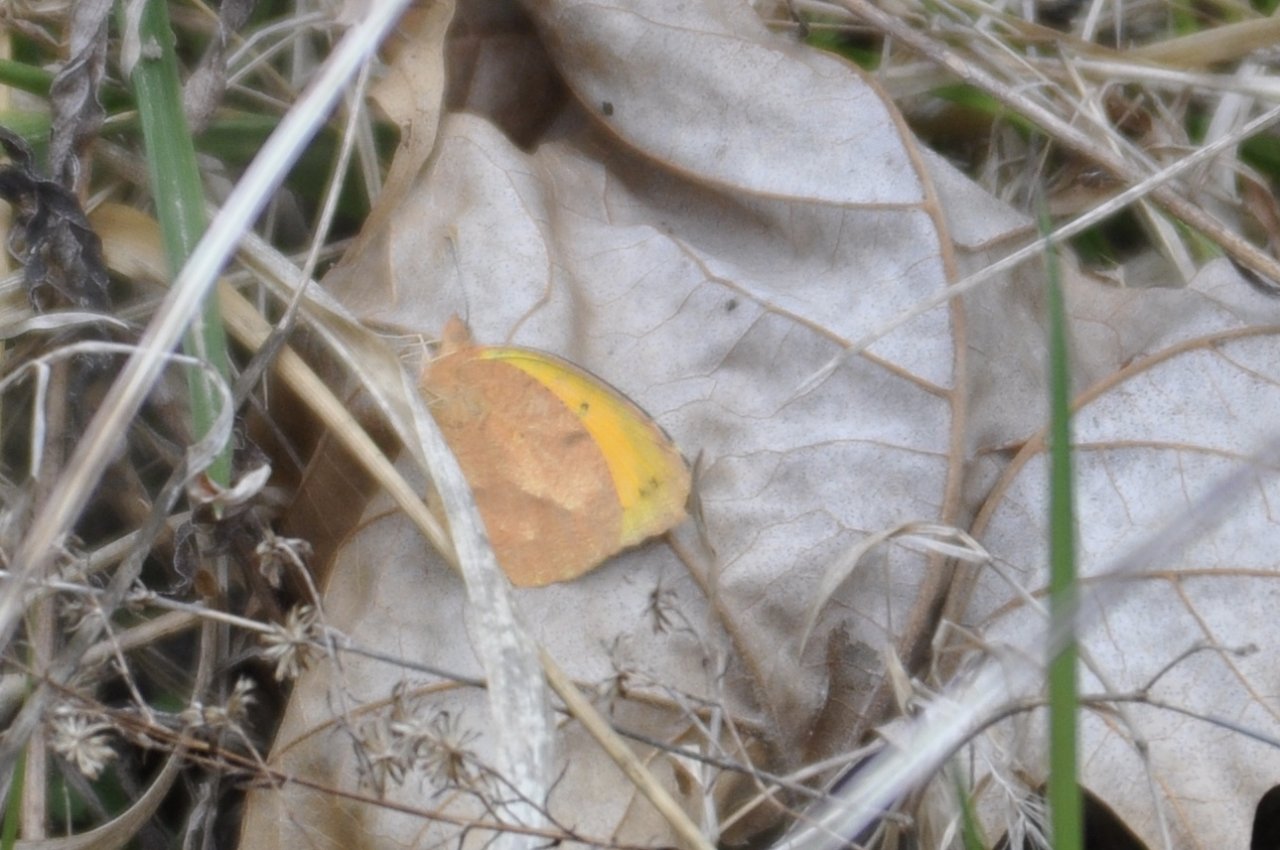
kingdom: Animalia
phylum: Arthropoda
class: Insecta
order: Lepidoptera
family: Pieridae
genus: Abaeis
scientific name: Abaeis nicippe
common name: Sleepy Orange
